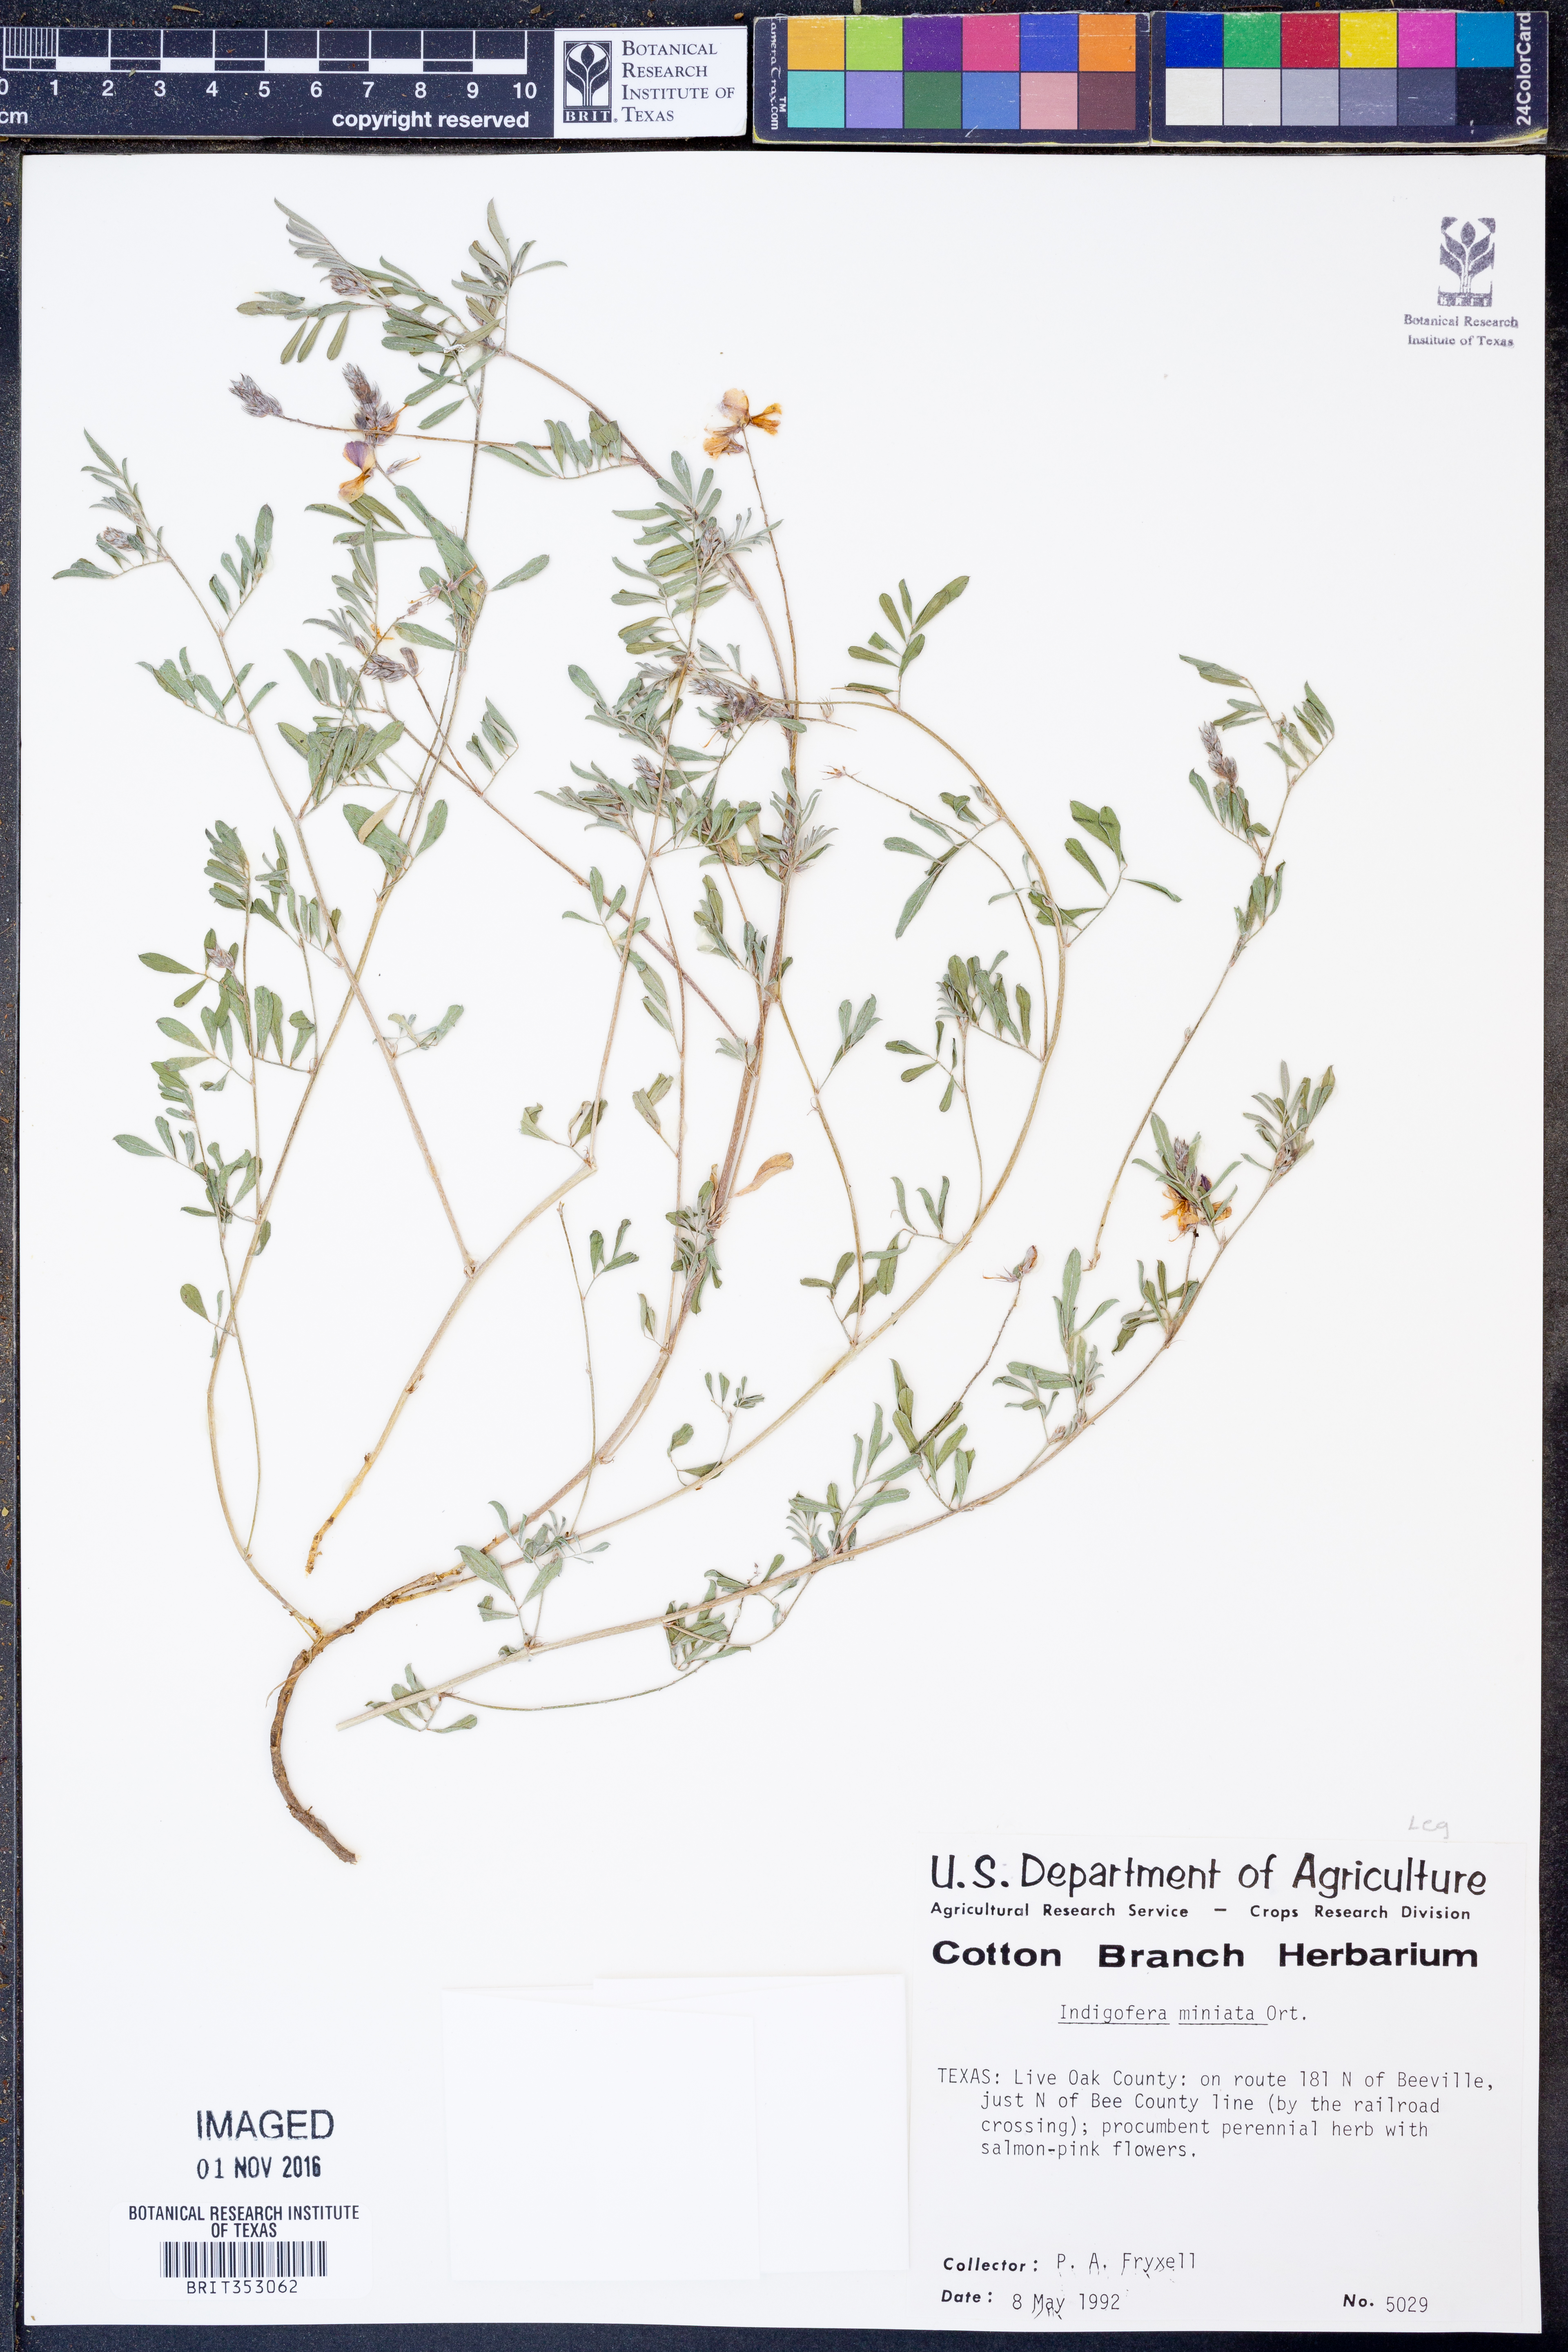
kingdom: Plantae
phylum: Tracheophyta
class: Magnoliopsida
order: Fabales
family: Fabaceae
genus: Indigofera
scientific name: Indigofera miniata
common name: Coast indigo
